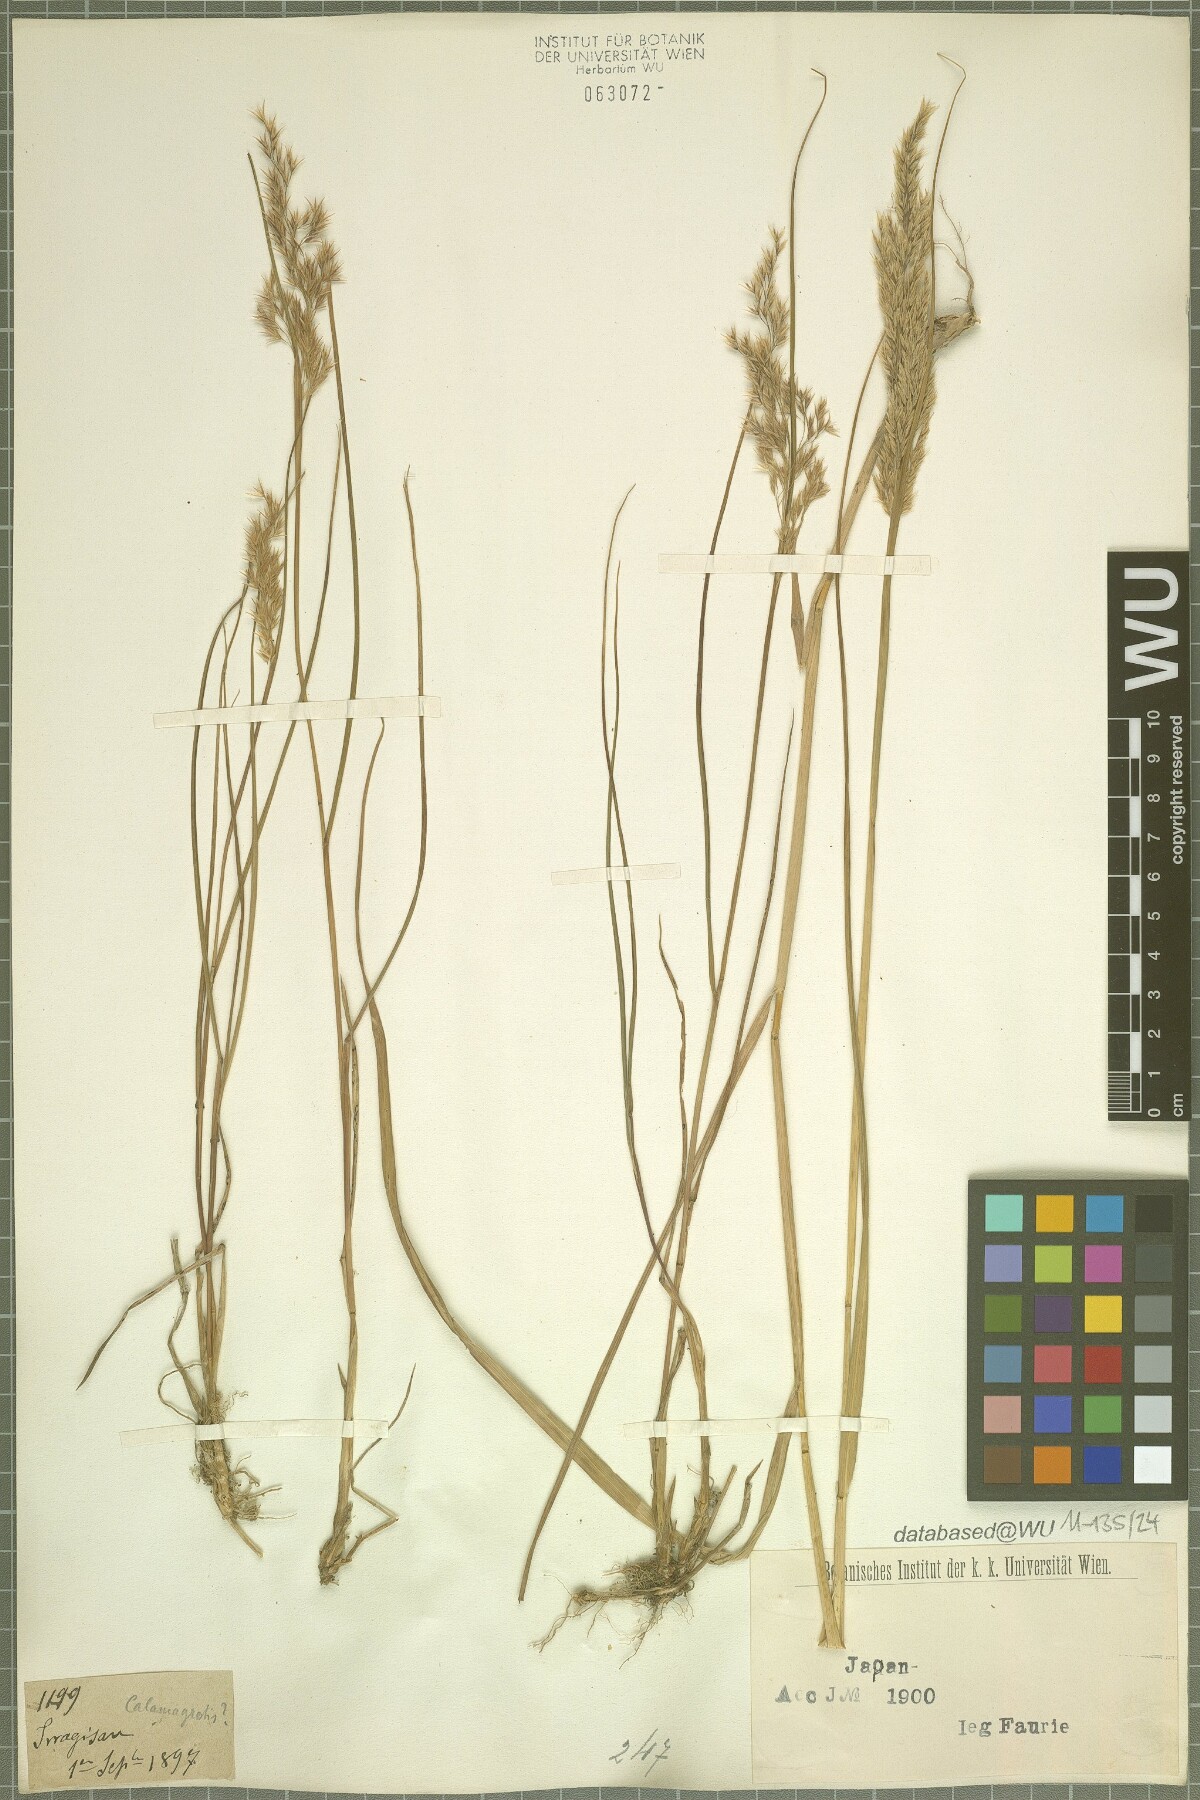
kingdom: Plantae
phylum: Tracheophyta
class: Liliopsida
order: Poales
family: Poaceae
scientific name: Poaceae
